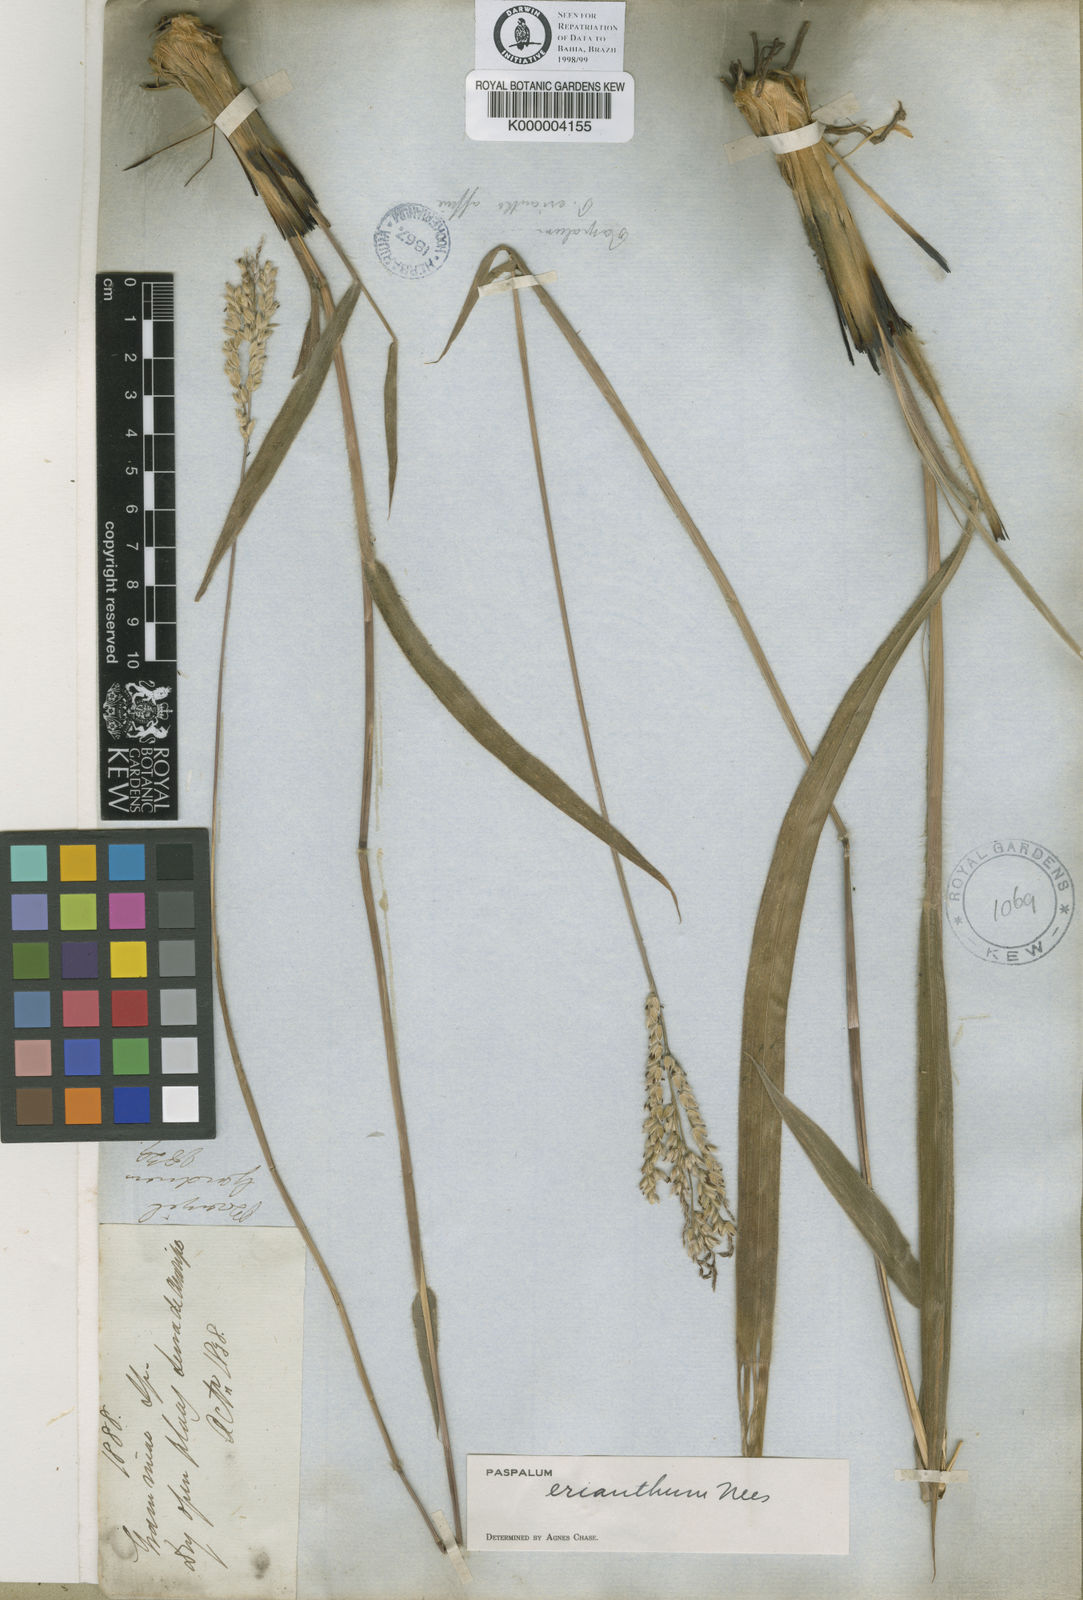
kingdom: Plantae
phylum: Tracheophyta
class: Liliopsida
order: Poales
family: Poaceae
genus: Paspalum
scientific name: Paspalum erianthum
